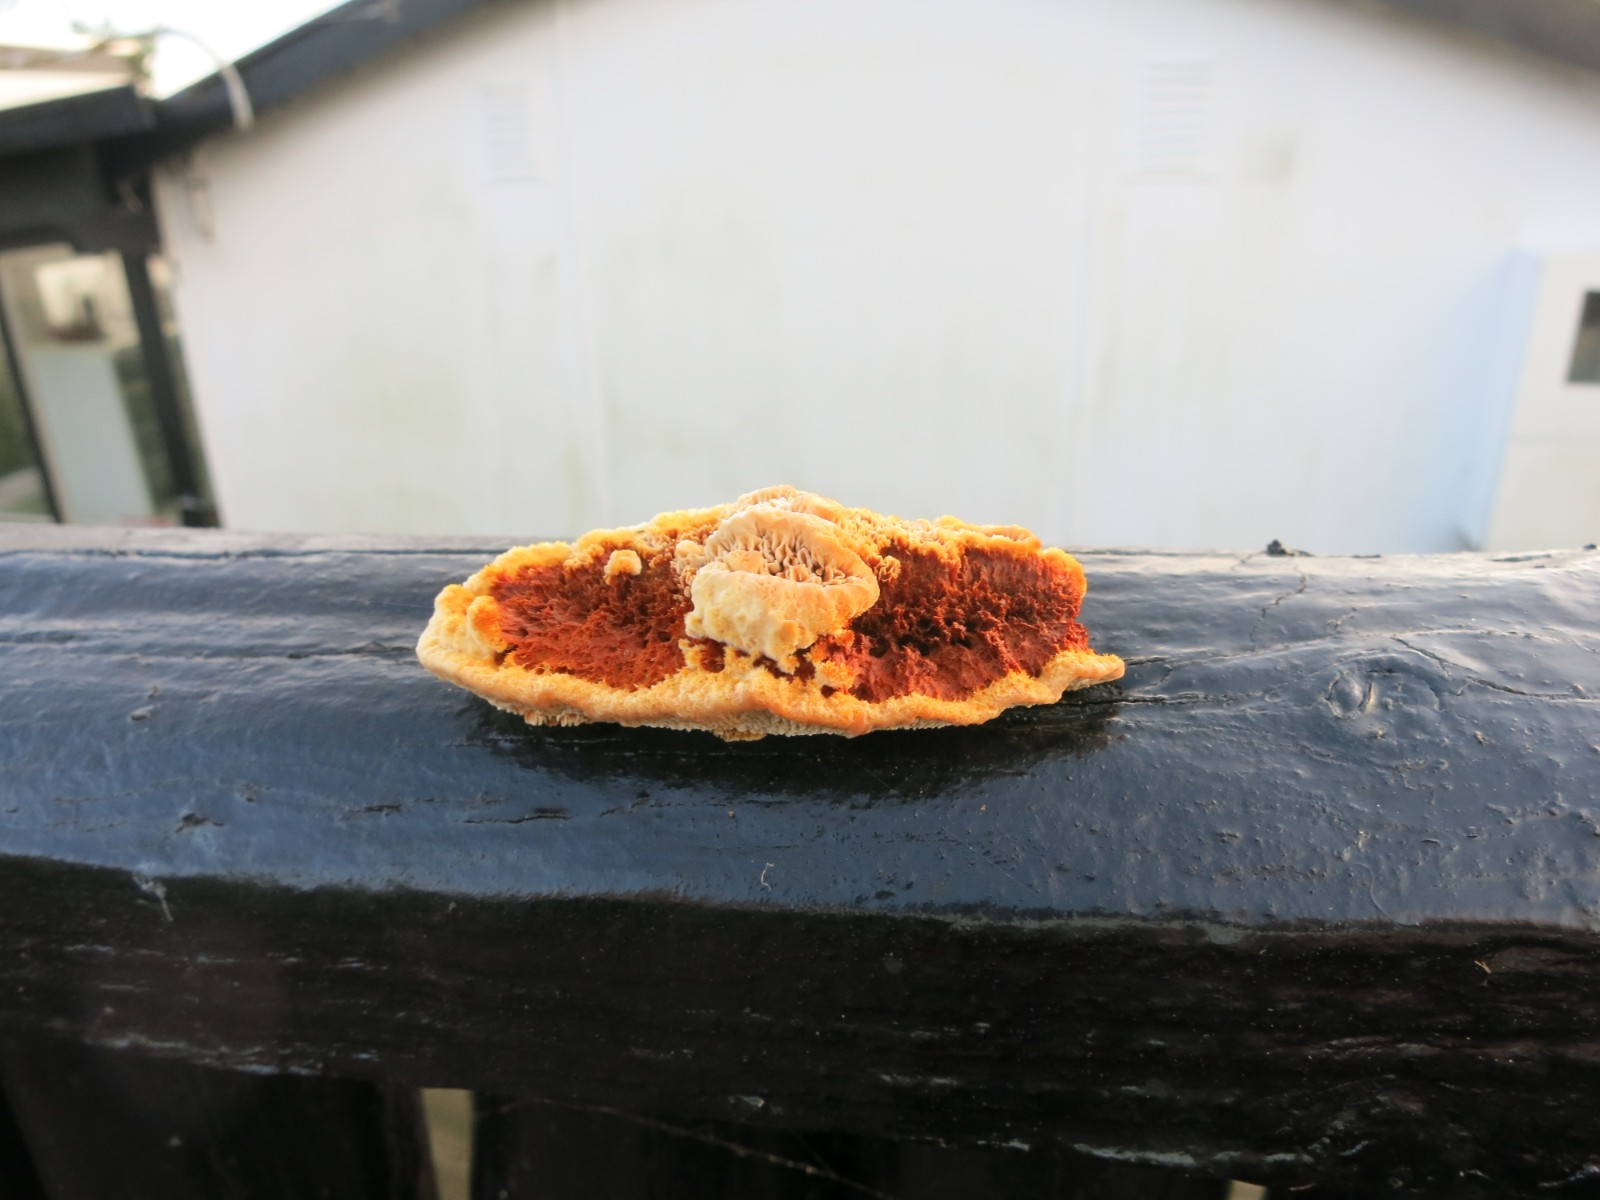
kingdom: Fungi
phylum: Basidiomycota
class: Agaricomycetes
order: Gloeophyllales
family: Gloeophyllaceae
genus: Gloeophyllum
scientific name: Gloeophyllum sepiarium
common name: fyrre-korkhat
